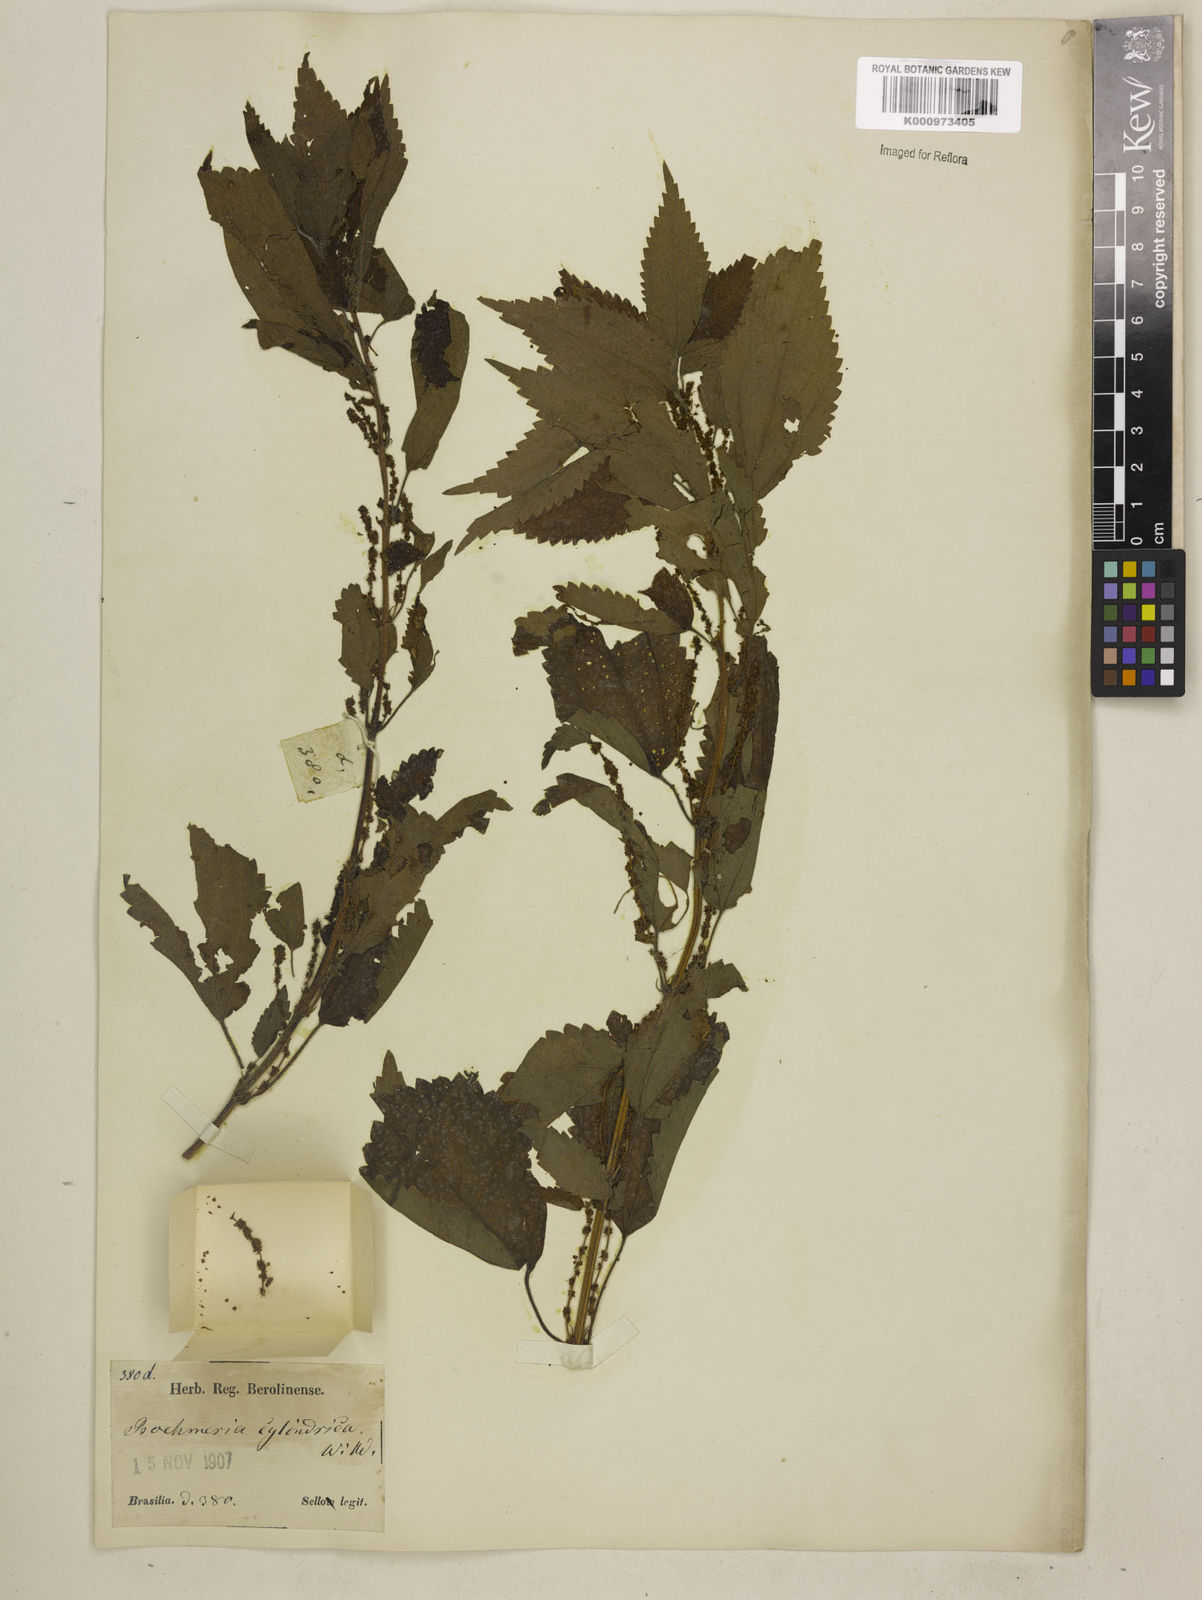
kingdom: Plantae
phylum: Tracheophyta
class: Magnoliopsida
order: Rosales
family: Urticaceae
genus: Boehmeria
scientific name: Boehmeria cylindrica
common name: Bog-hemp
